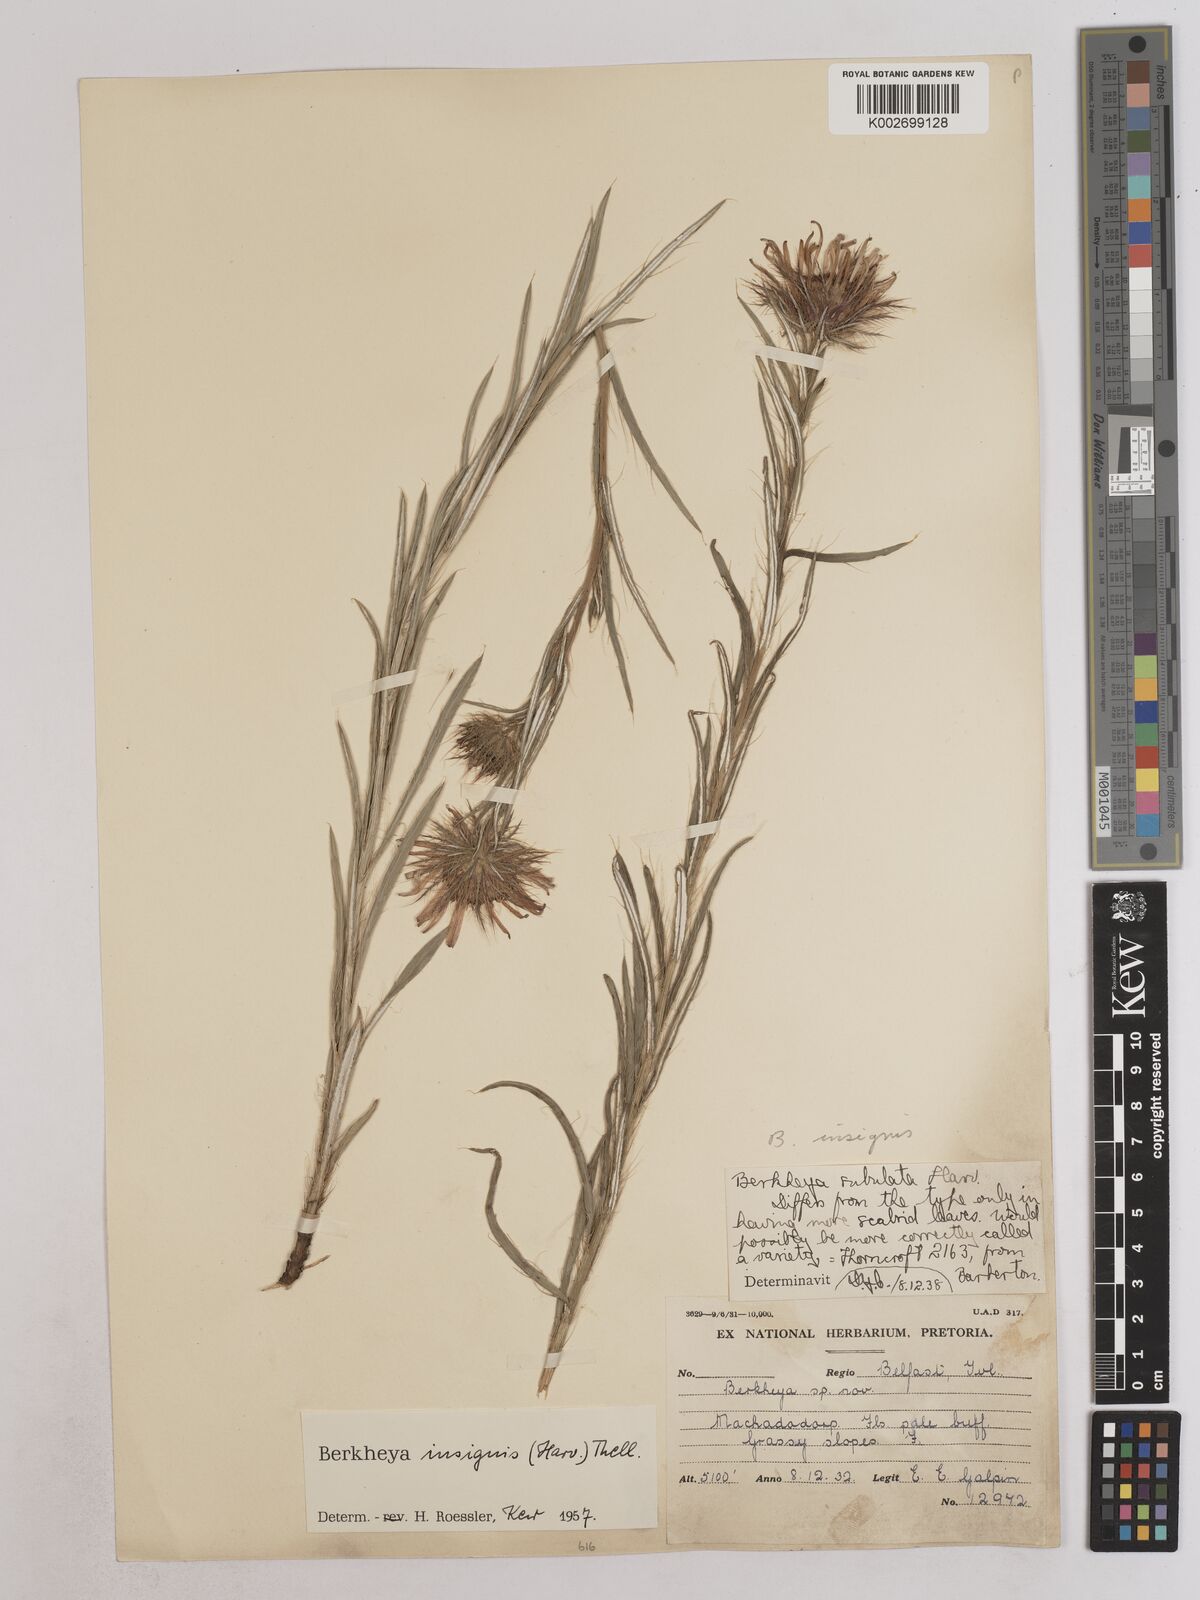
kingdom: Plantae
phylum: Tracheophyta
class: Magnoliopsida
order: Asterales
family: Asteraceae
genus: Berkheya
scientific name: Berkheya insignis
